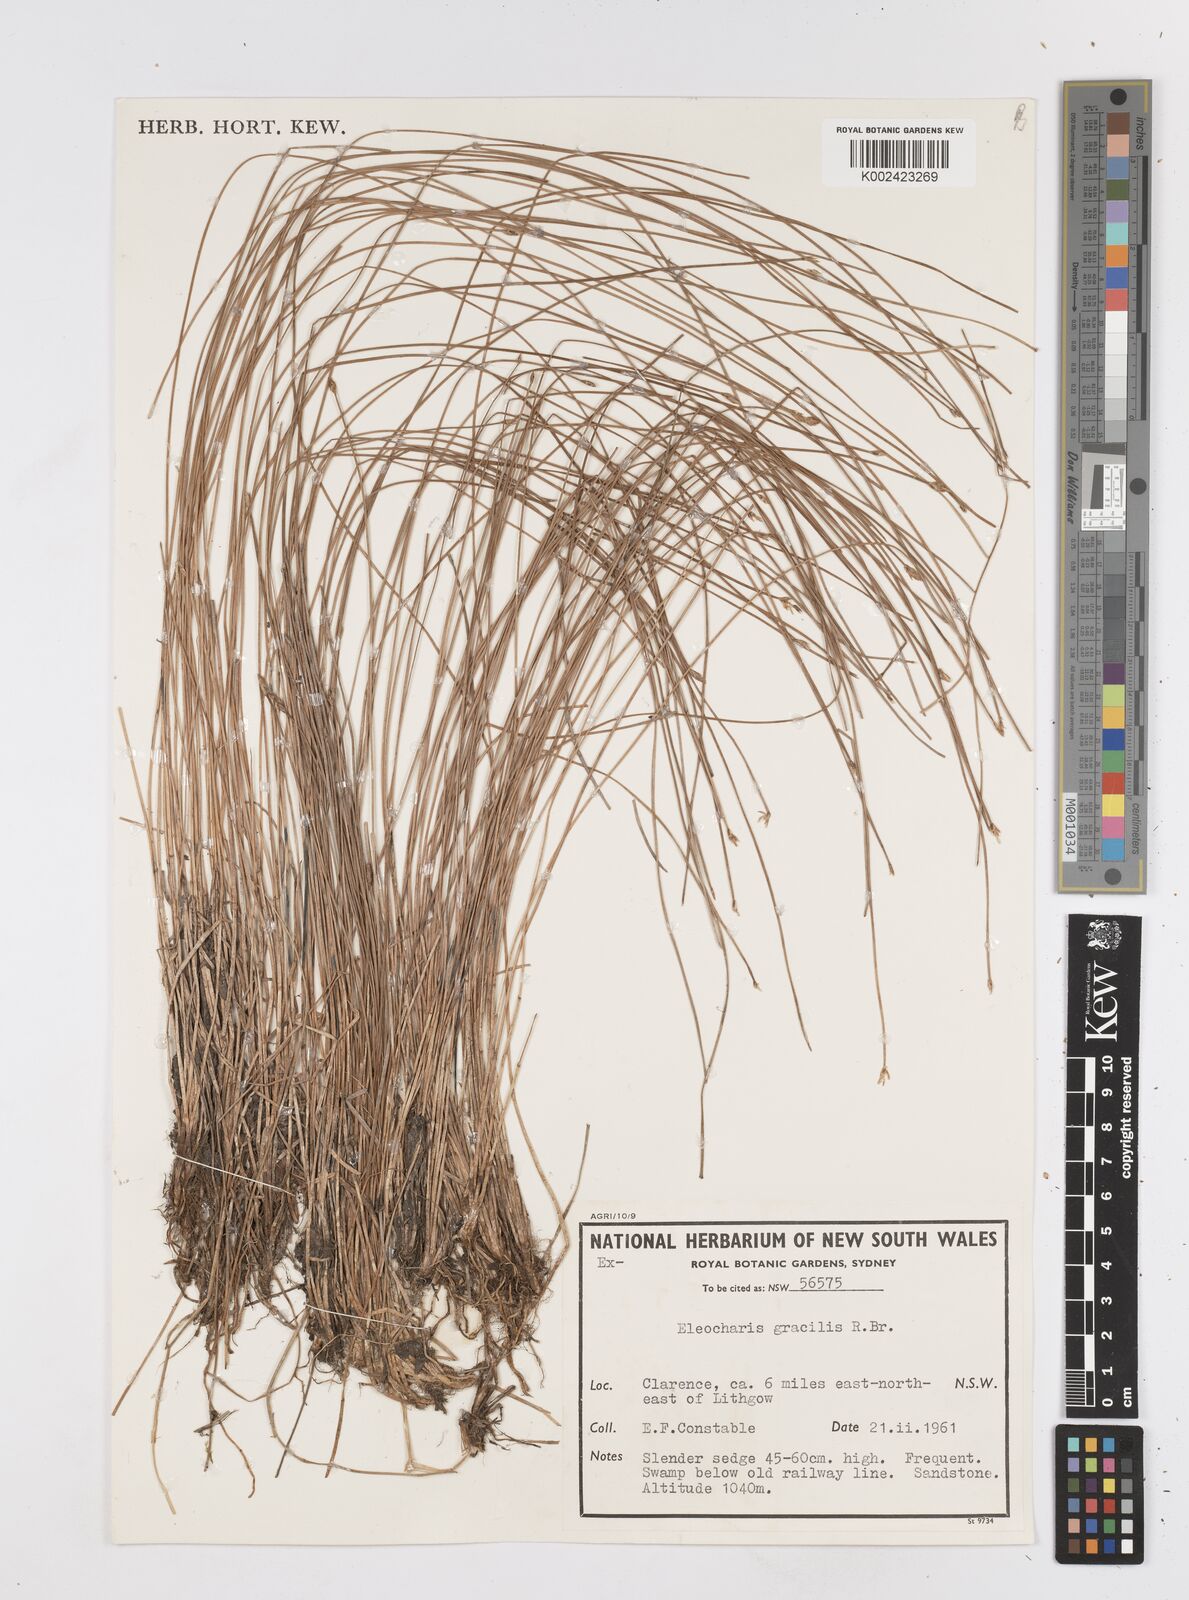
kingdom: Plantae
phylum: Tracheophyta
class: Liliopsida
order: Poales
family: Cyperaceae
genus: Eleocharis
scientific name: Eleocharis multicaulis
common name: Many-stalked spike-rush
